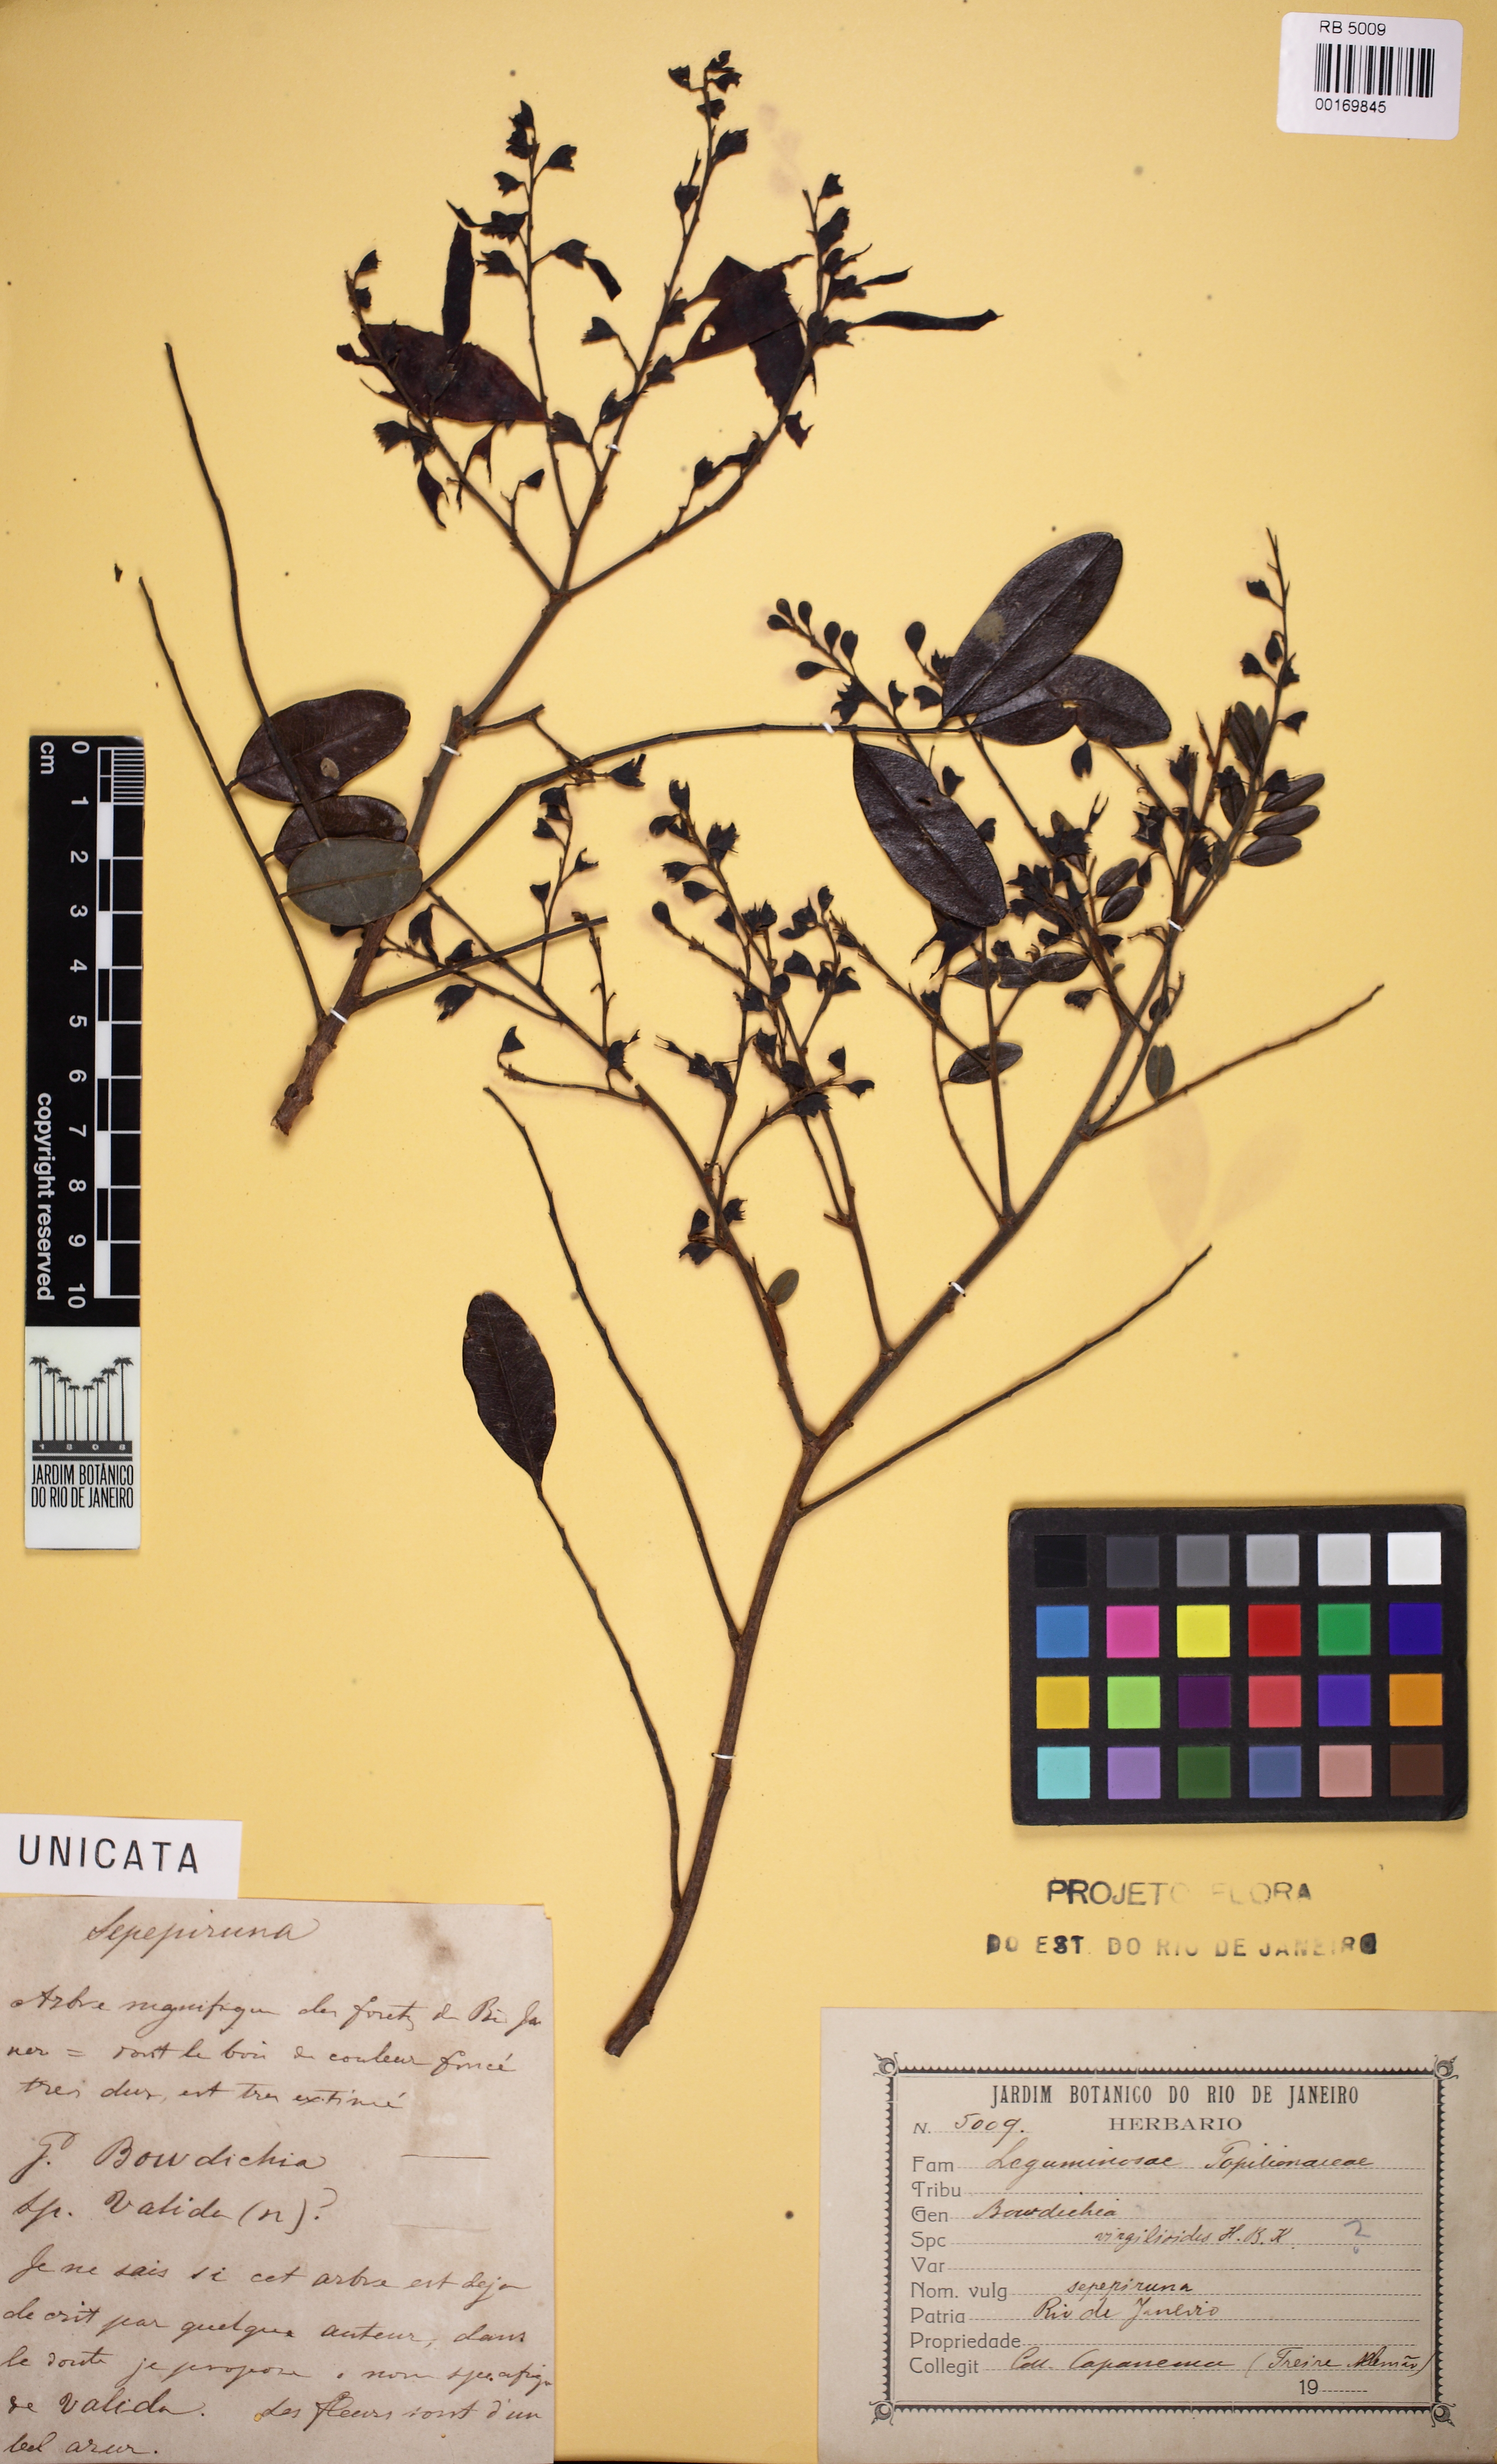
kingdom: Plantae
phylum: Tracheophyta
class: Magnoliopsida
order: Fabales
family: Fabaceae
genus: Bowdichia
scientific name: Bowdichia virgilioides
